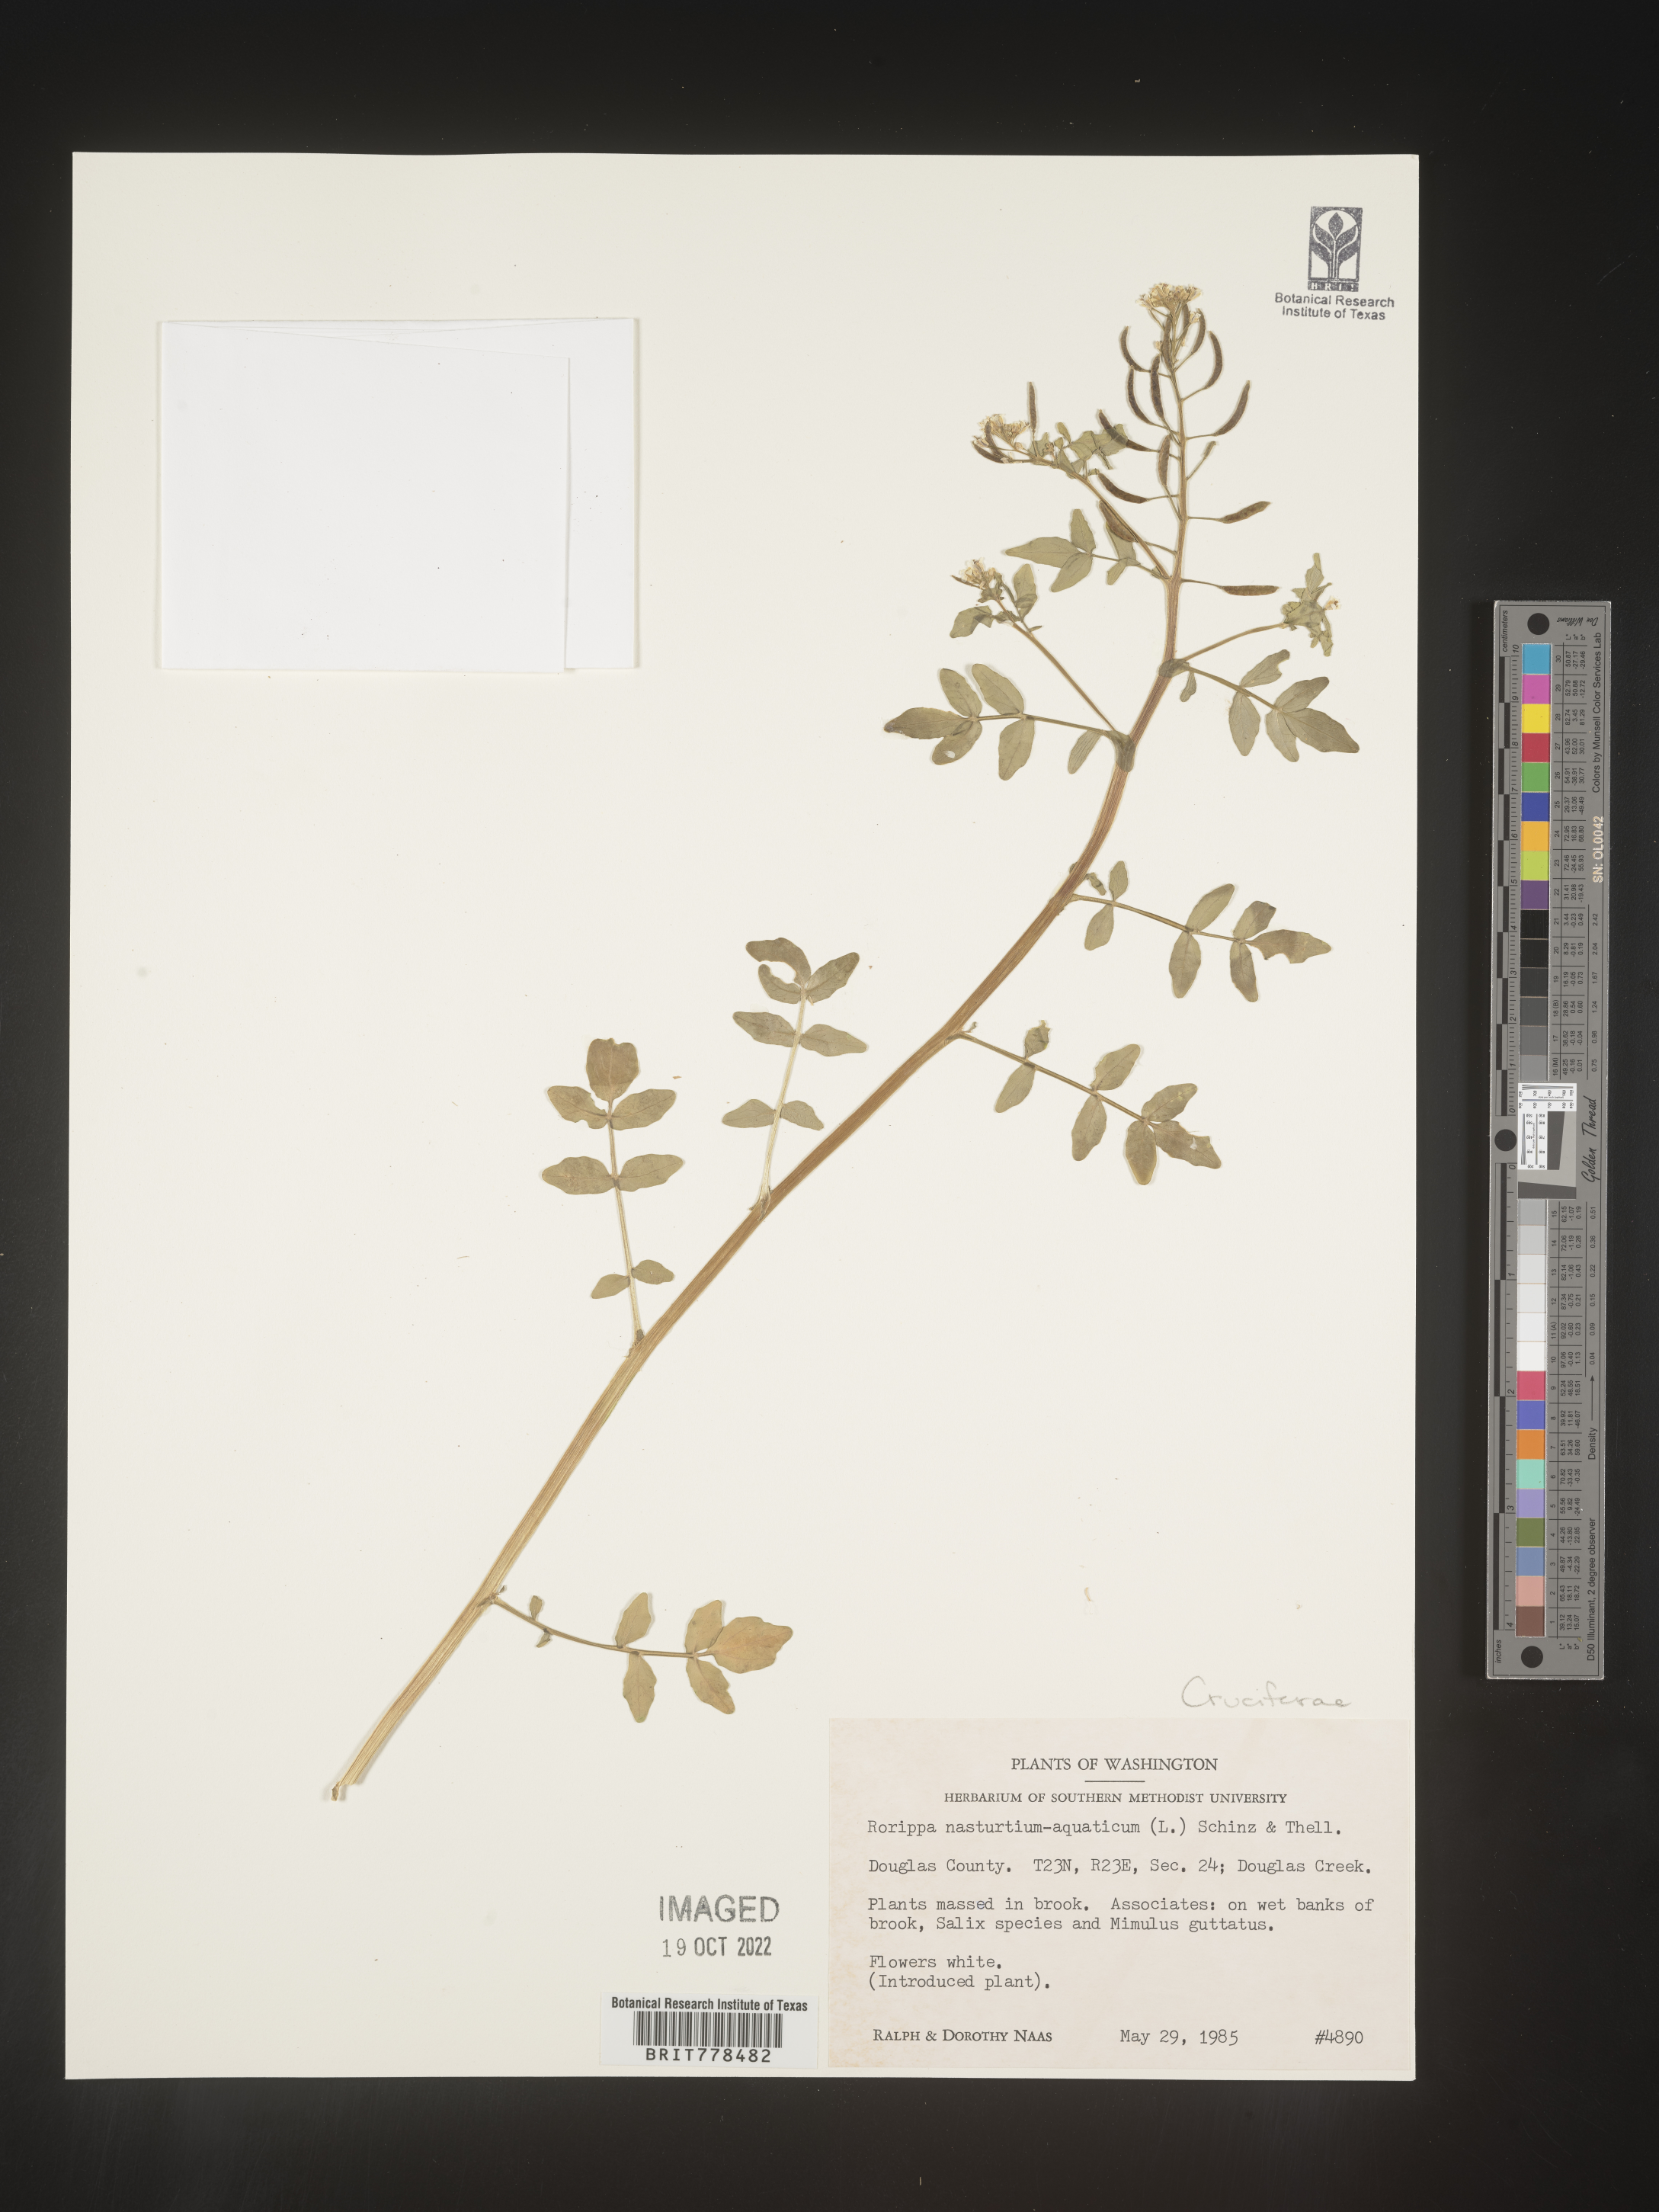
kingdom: Plantae
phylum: Tracheophyta
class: Magnoliopsida
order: Brassicales
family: Brassicaceae
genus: Nasturtium
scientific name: Nasturtium officinale
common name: Watercress
